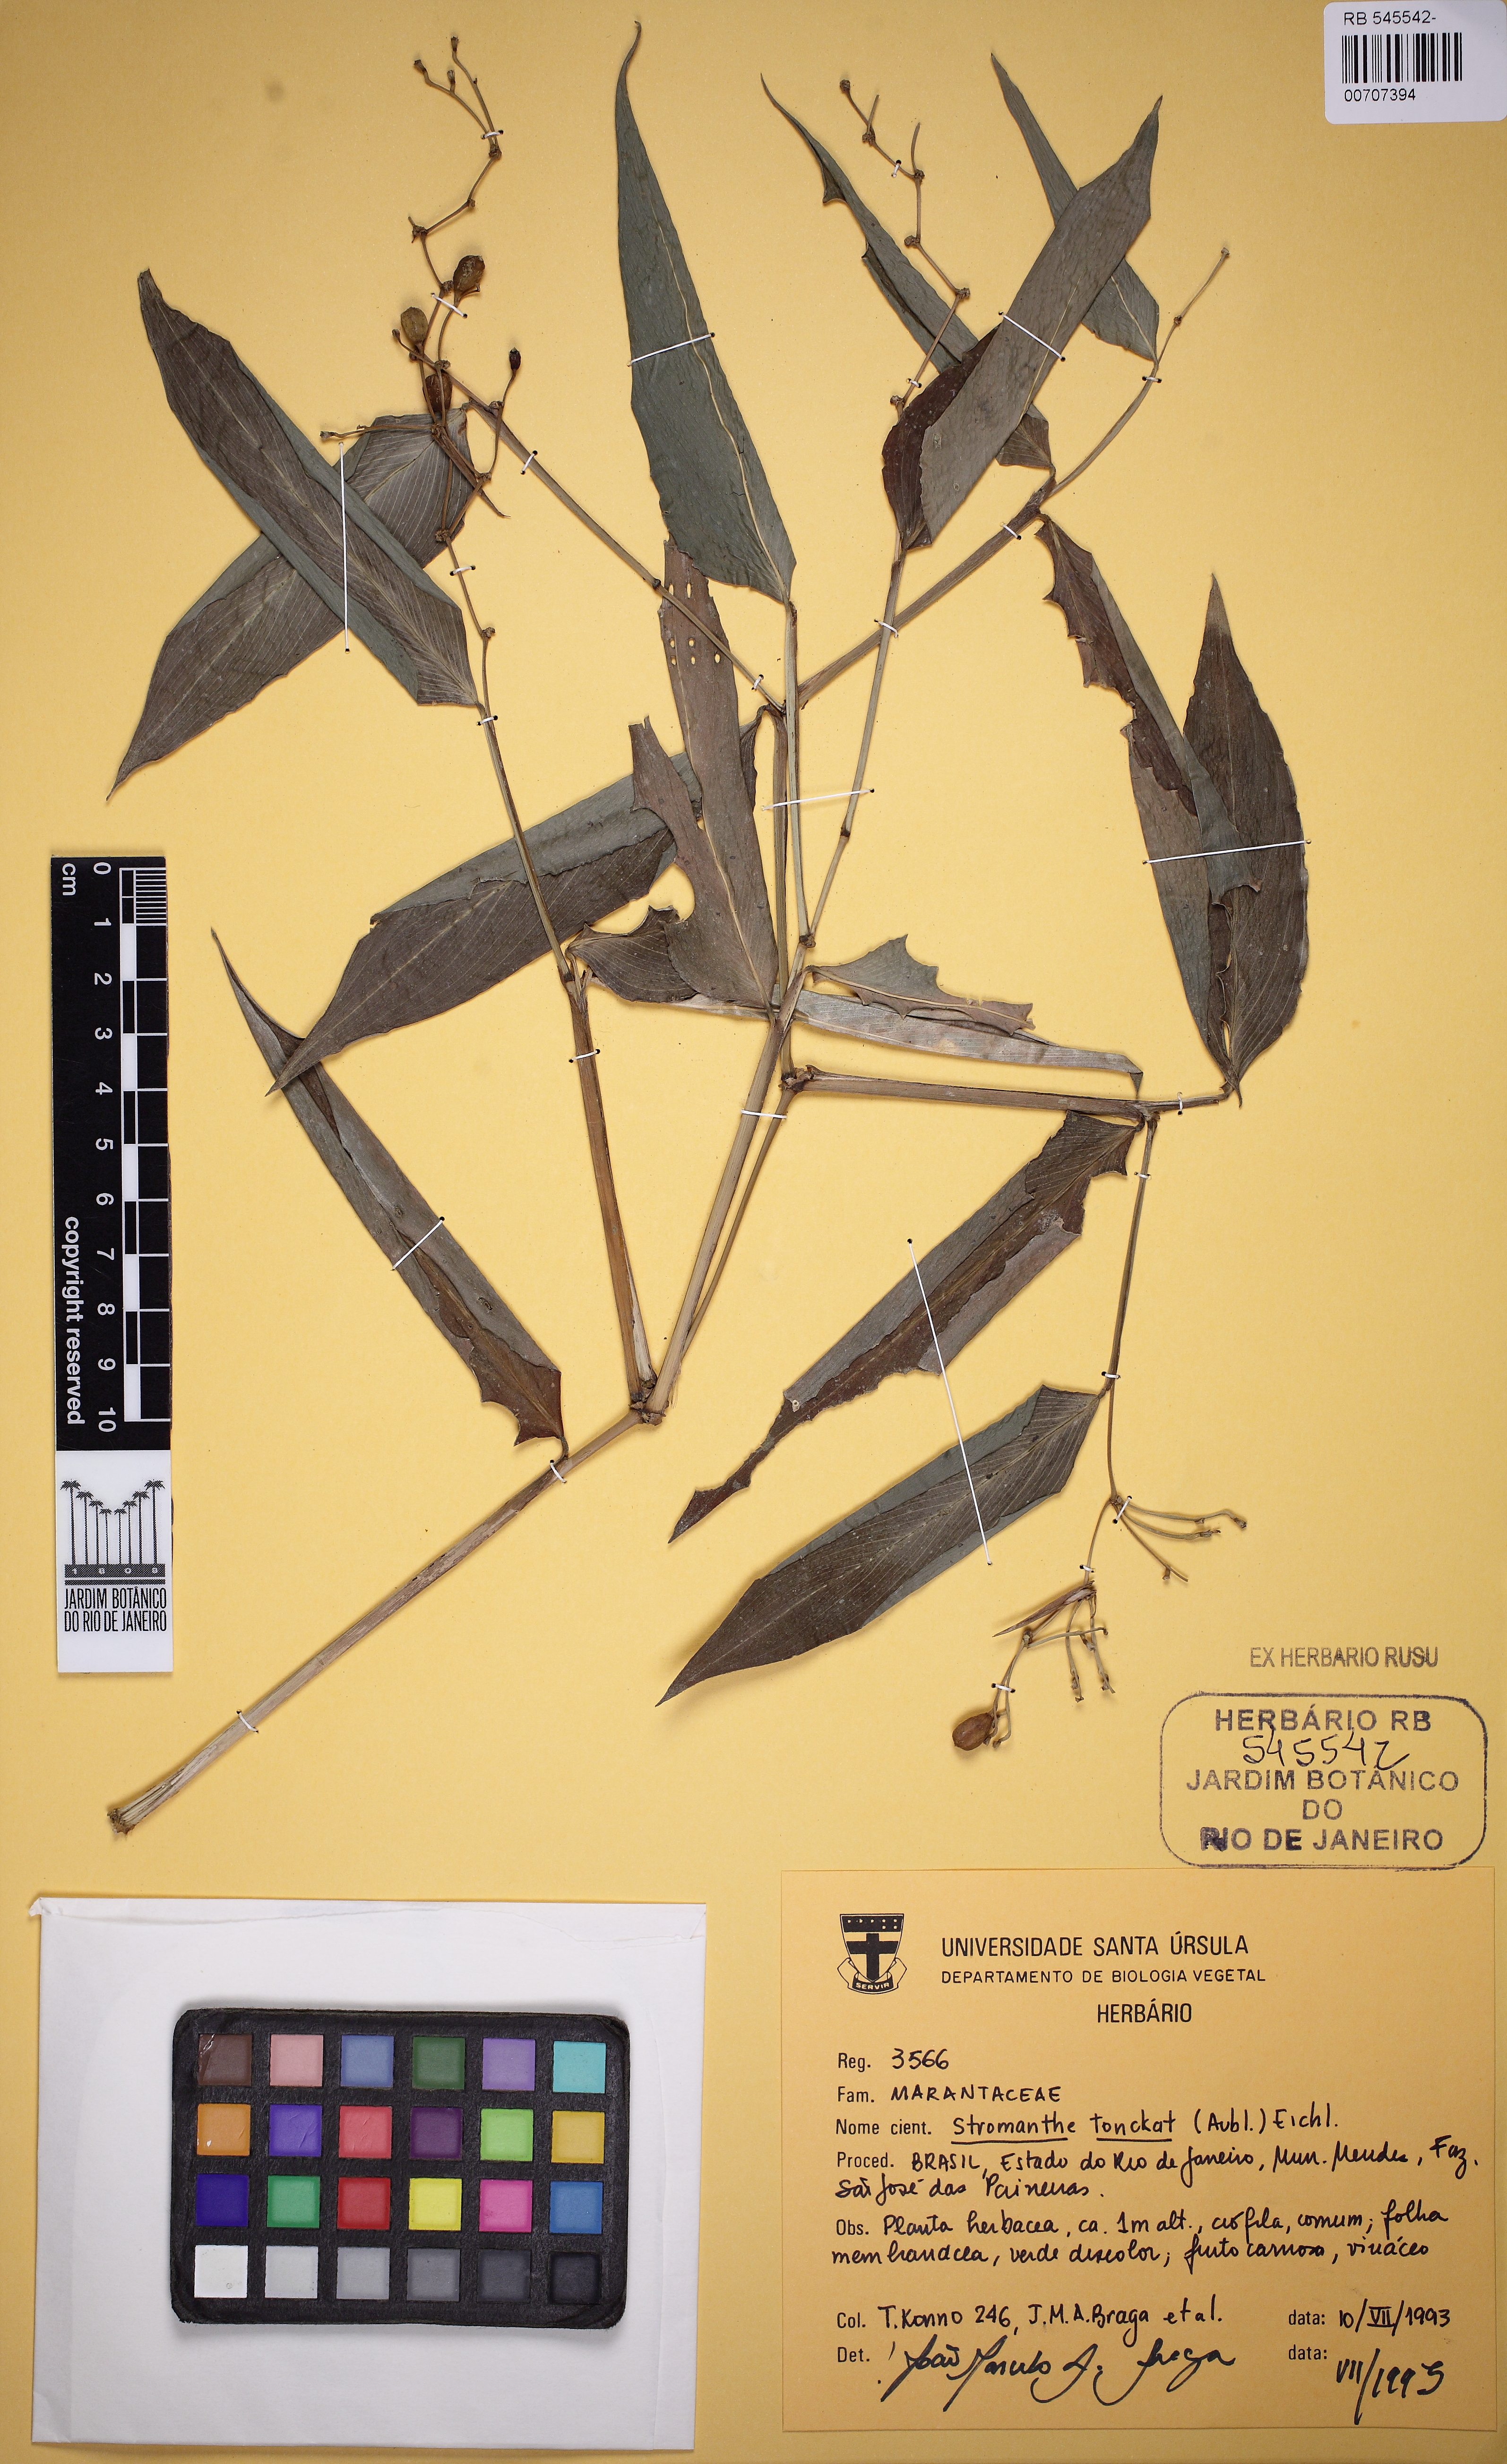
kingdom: Plantae
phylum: Tracheophyta
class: Liliopsida
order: Zingiberales
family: Marantaceae
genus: Stromanthe
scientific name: Stromanthe tonckat
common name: Stromanthe
